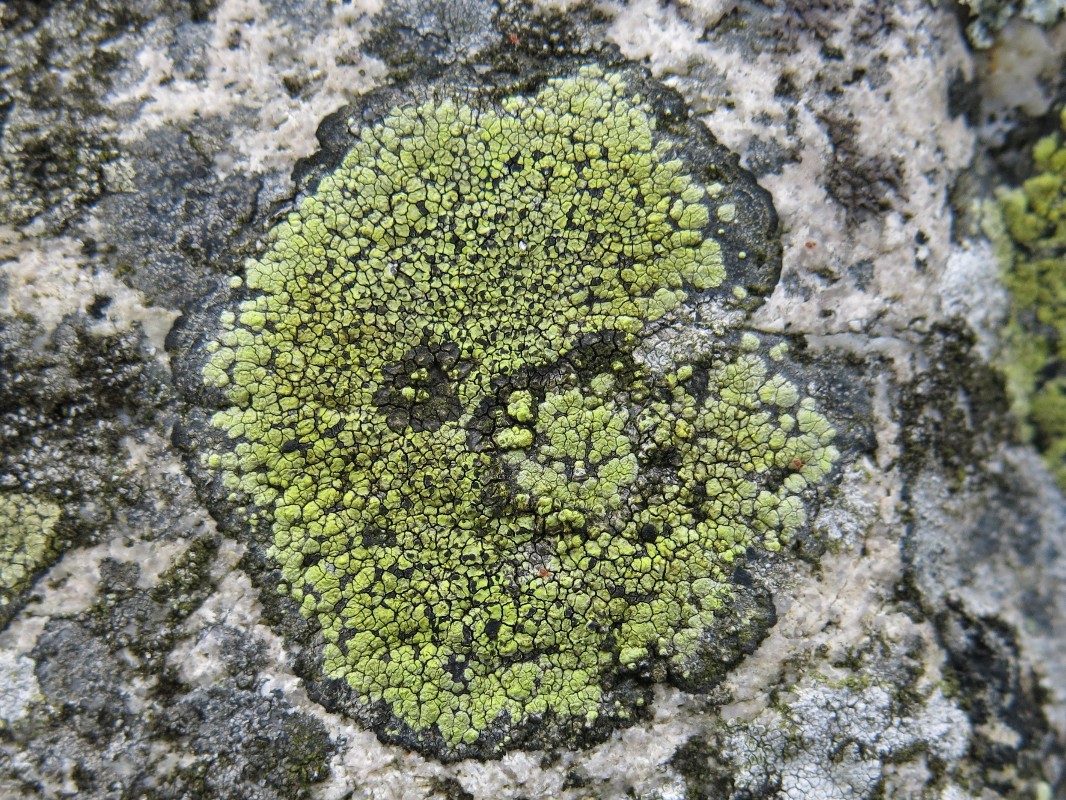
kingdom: Fungi
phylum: Ascomycota
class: Lecanoromycetes
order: Rhizocarpales
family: Rhizocarpaceae
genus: Rhizocarpon
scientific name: Rhizocarpon geographicum
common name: gulgrøn landkortlav
